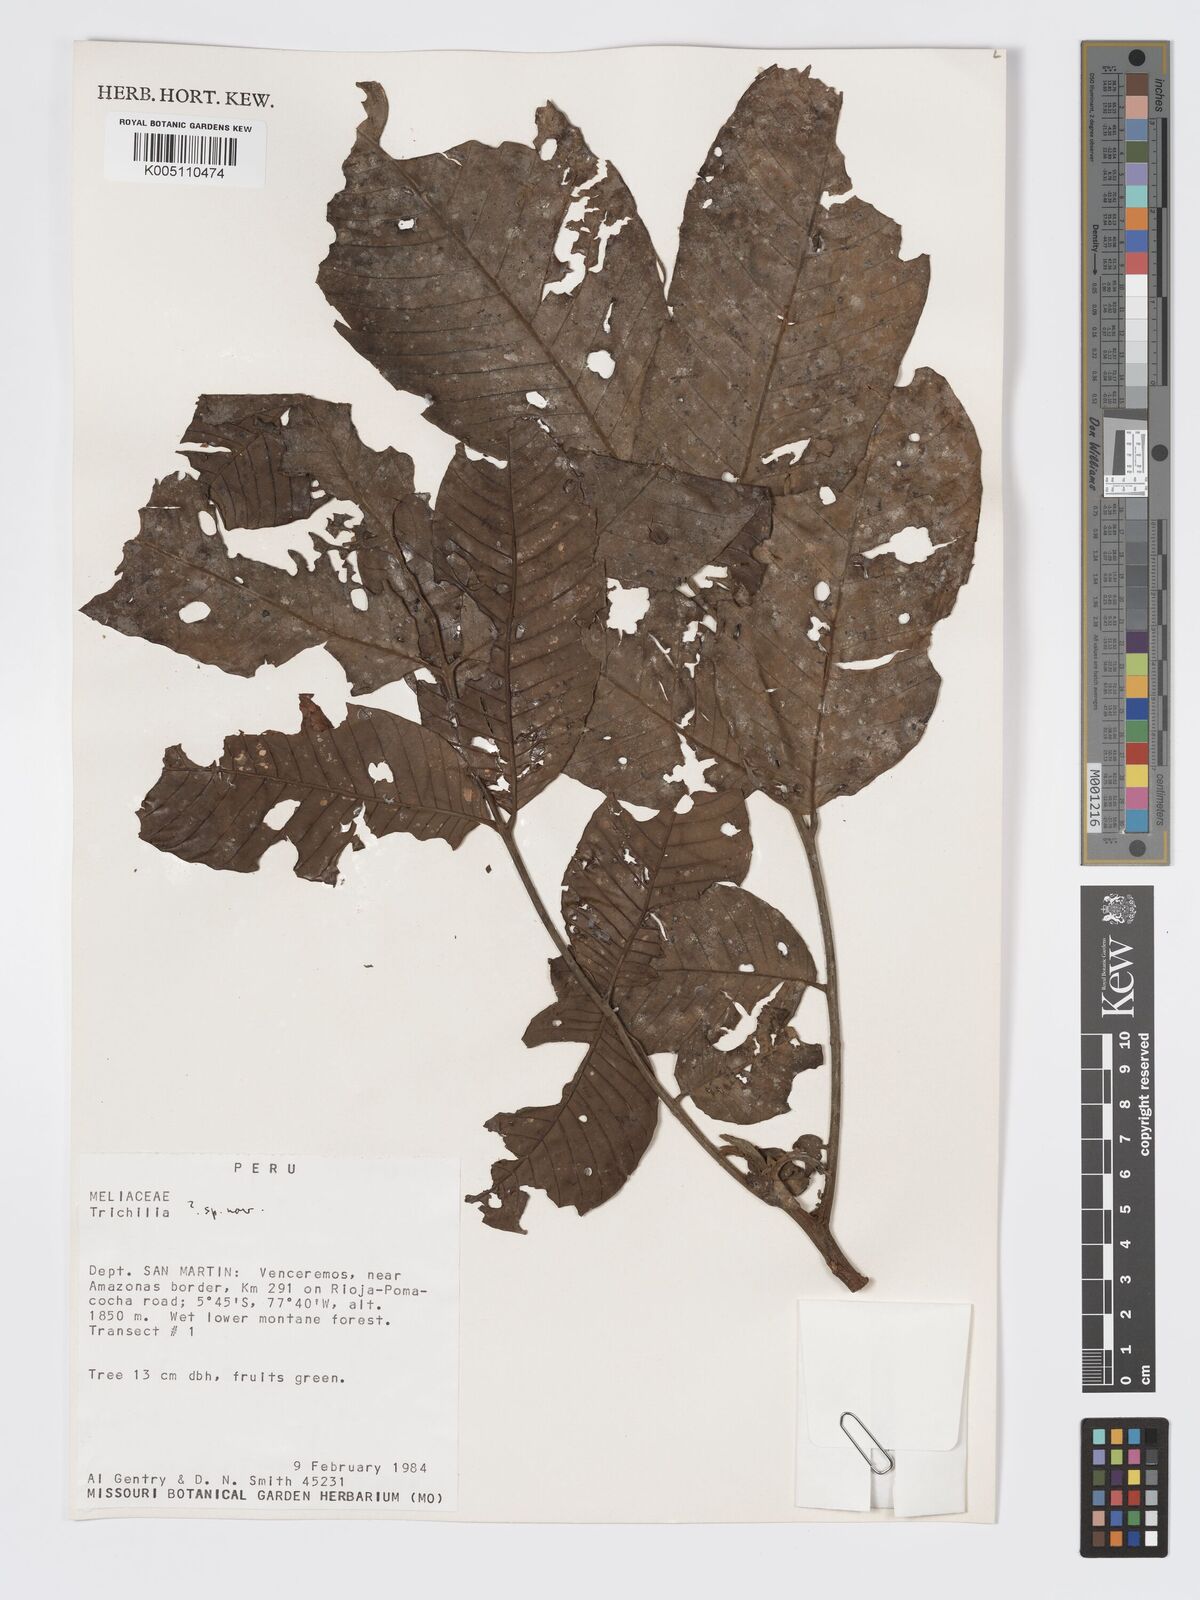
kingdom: Plantae
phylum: Tracheophyta
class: Magnoliopsida
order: Sapindales
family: Meliaceae
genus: Trichilia
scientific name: Trichilia
